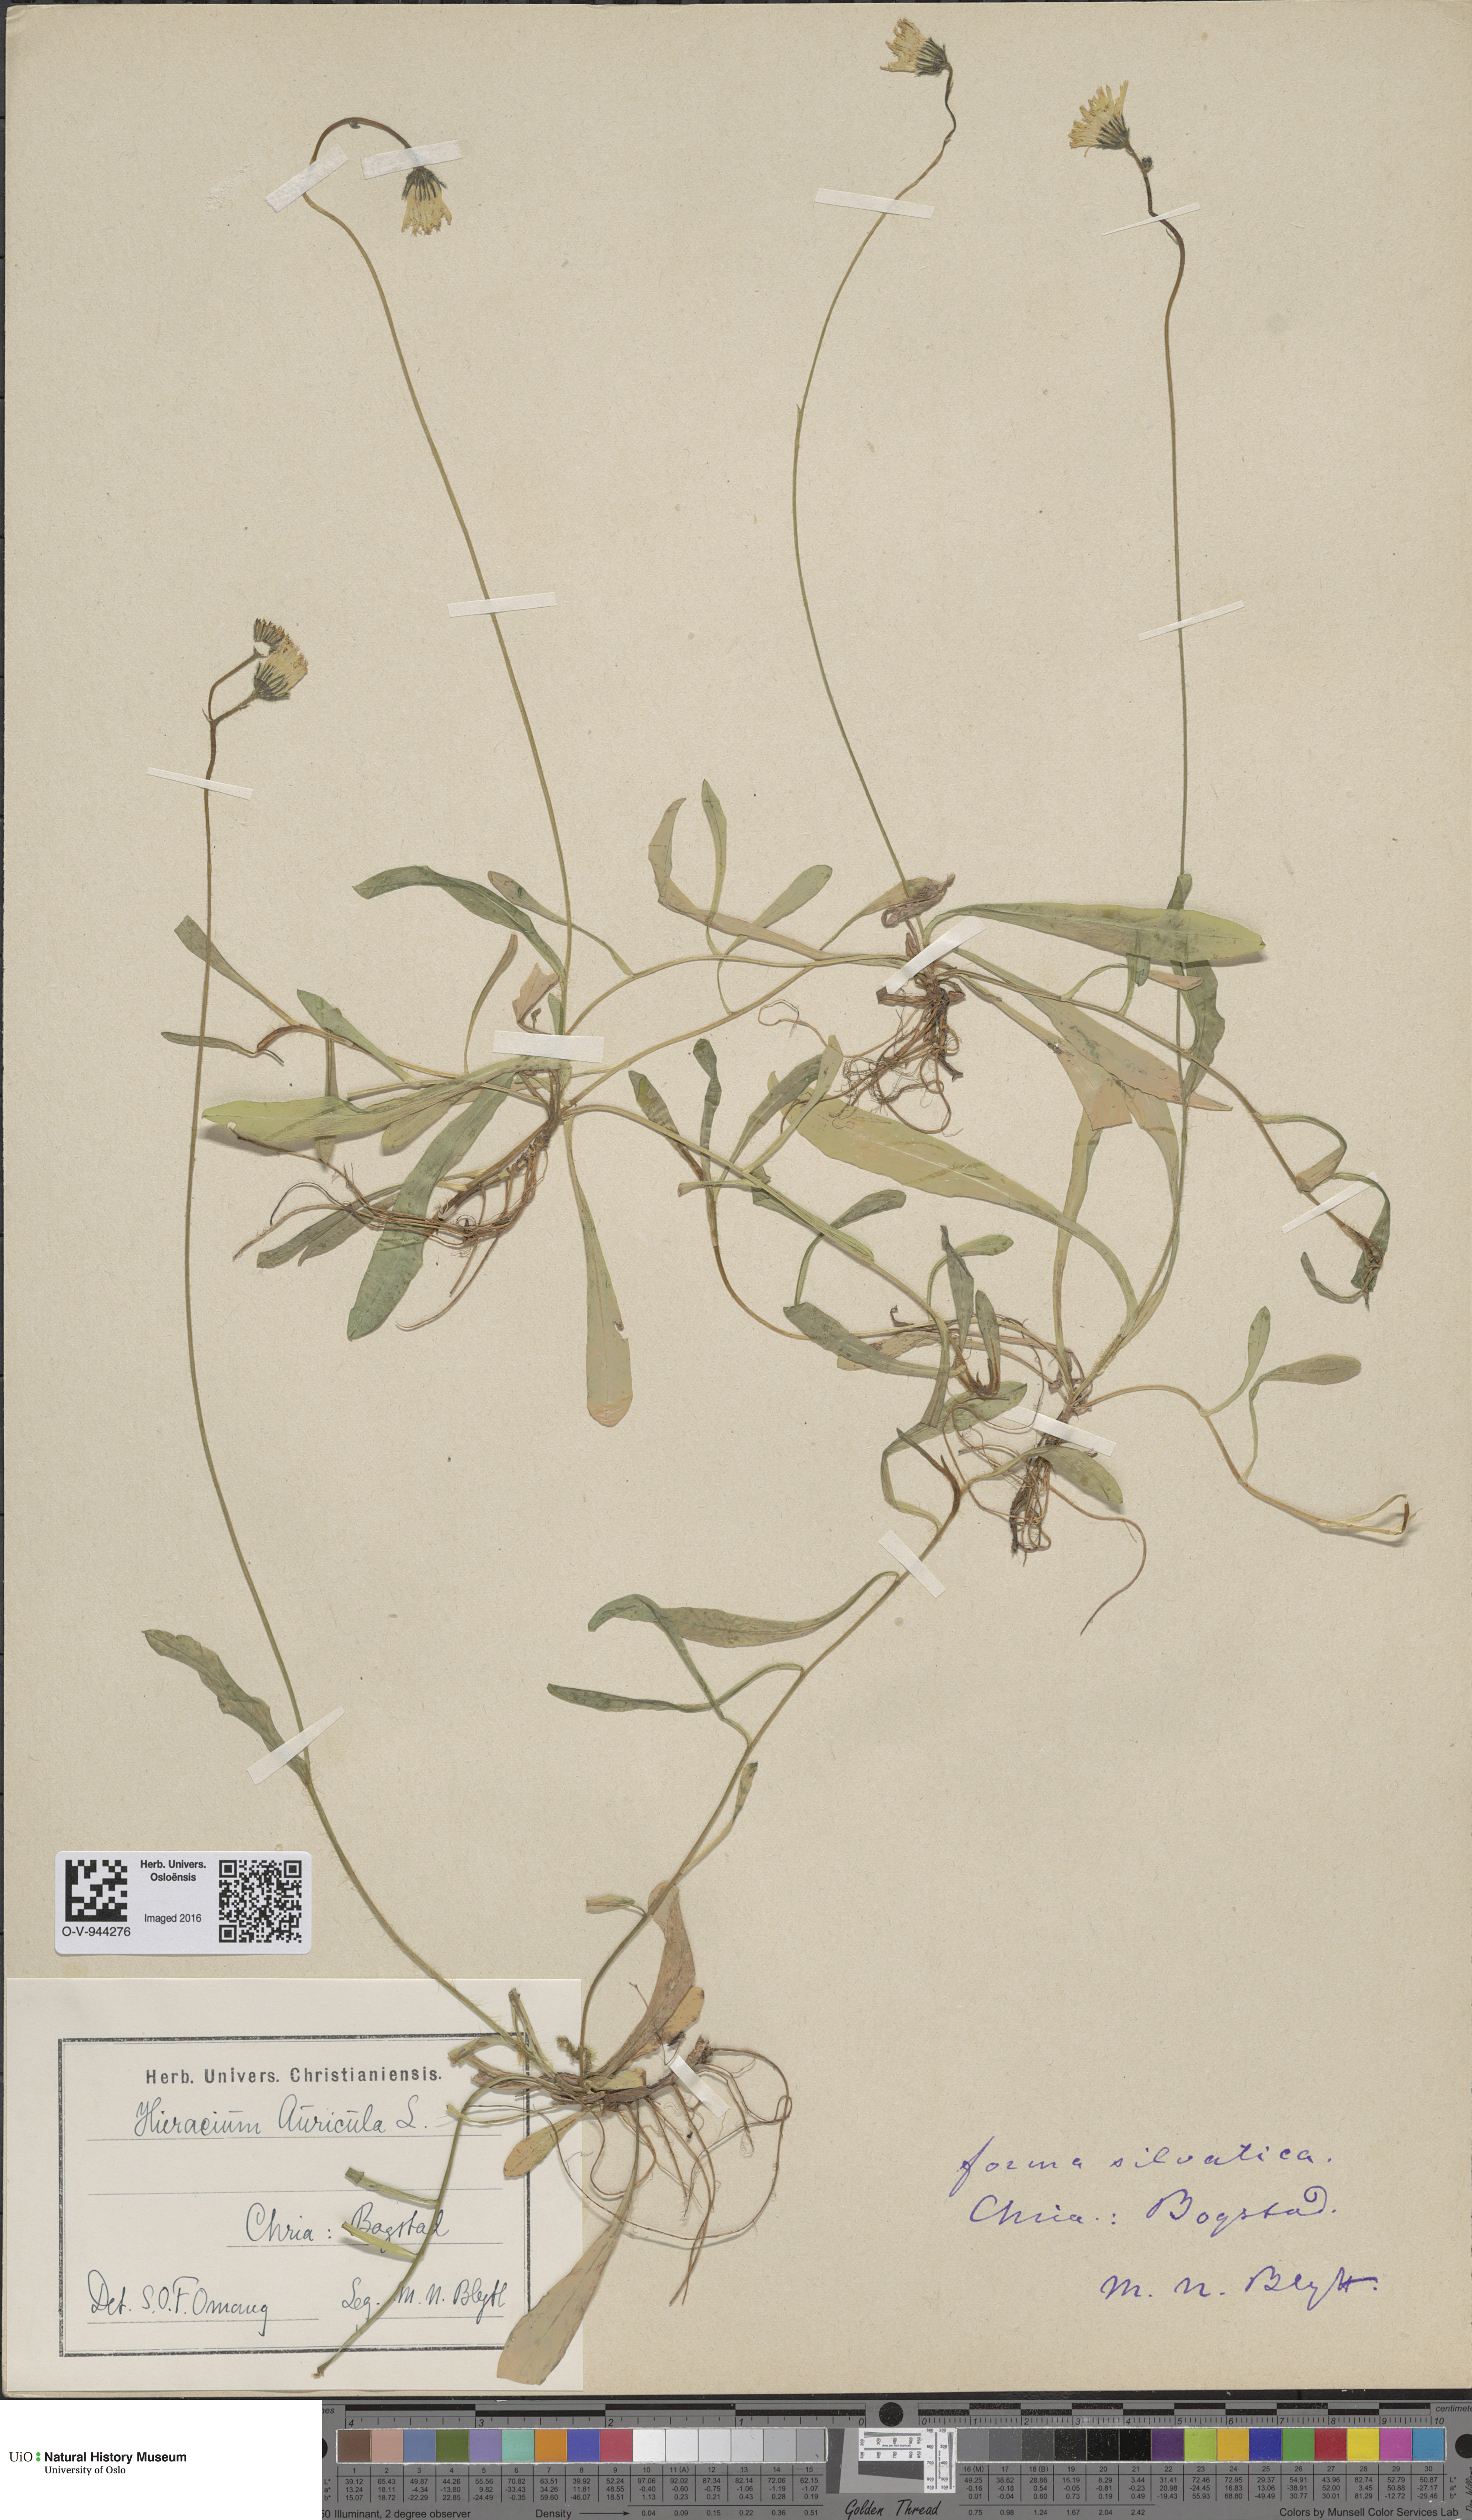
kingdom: Plantae
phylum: Tracheophyta
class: Magnoliopsida
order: Asterales
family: Asteraceae
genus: Pilosella
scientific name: Pilosella lactucella
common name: Glaucous fox-and-cubs
